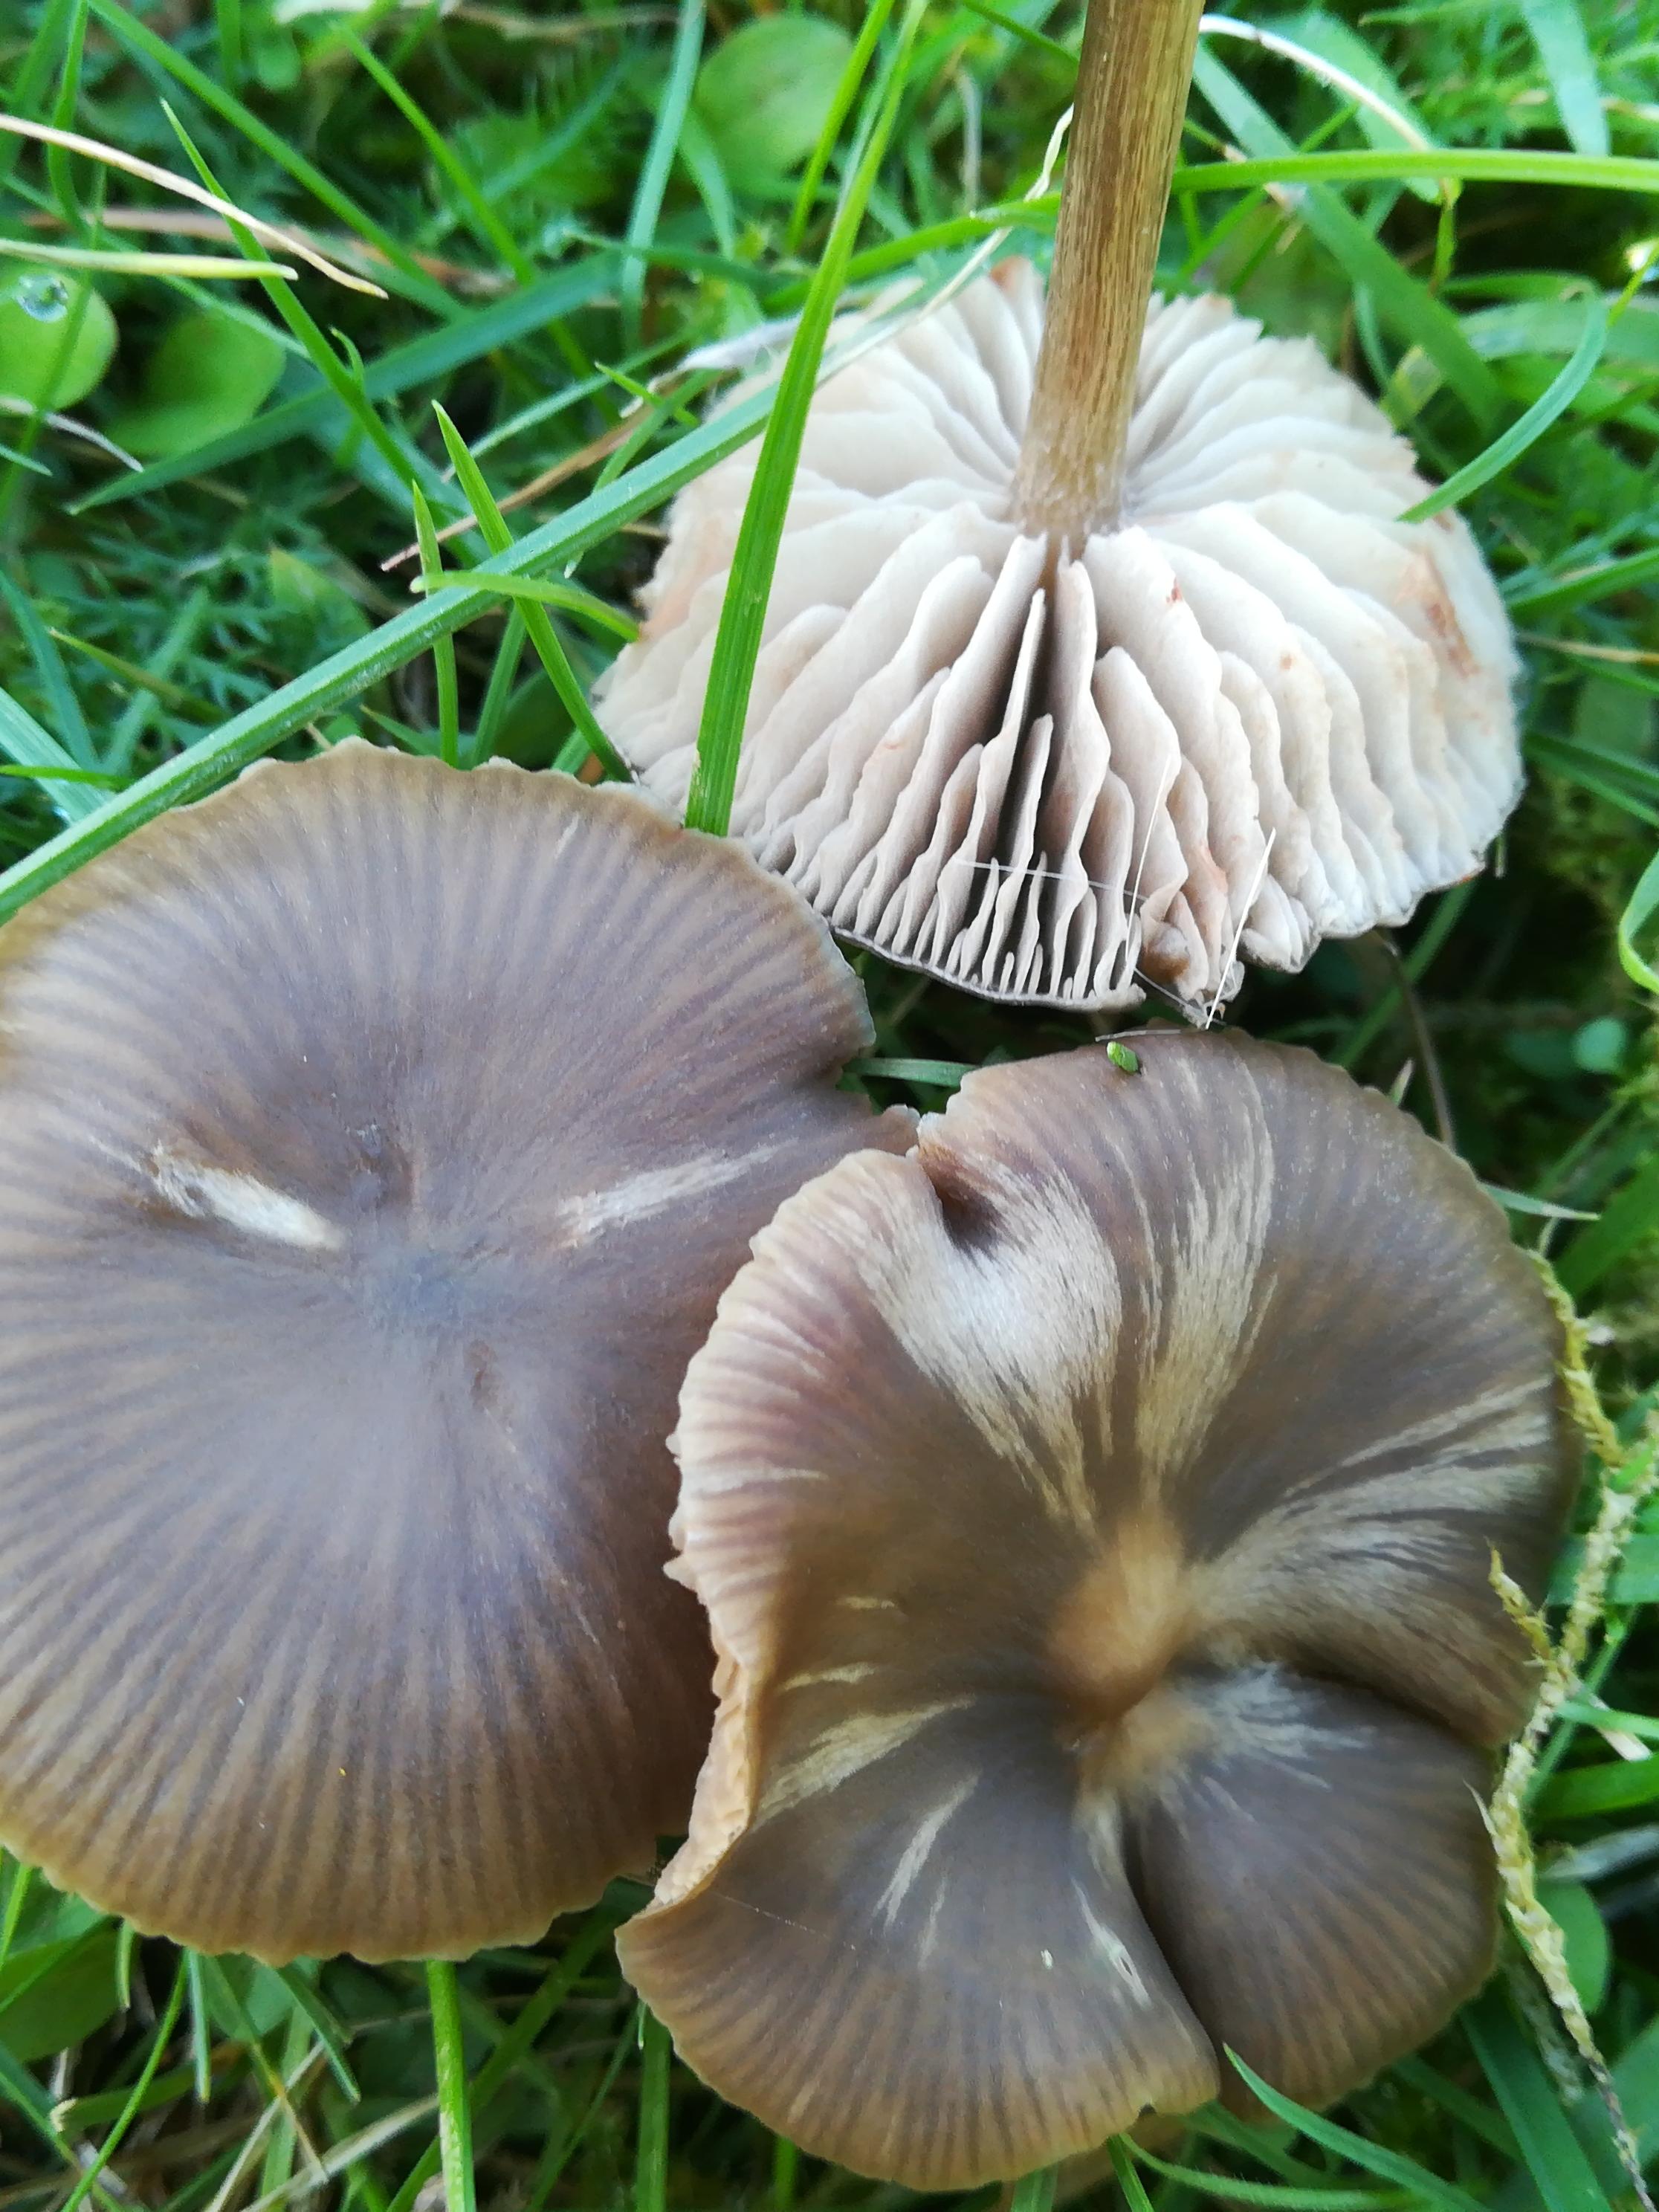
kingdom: Fungi
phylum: Basidiomycota
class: Agaricomycetes
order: Agaricales
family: Entolomataceae
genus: Entoloma
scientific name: Entoloma
